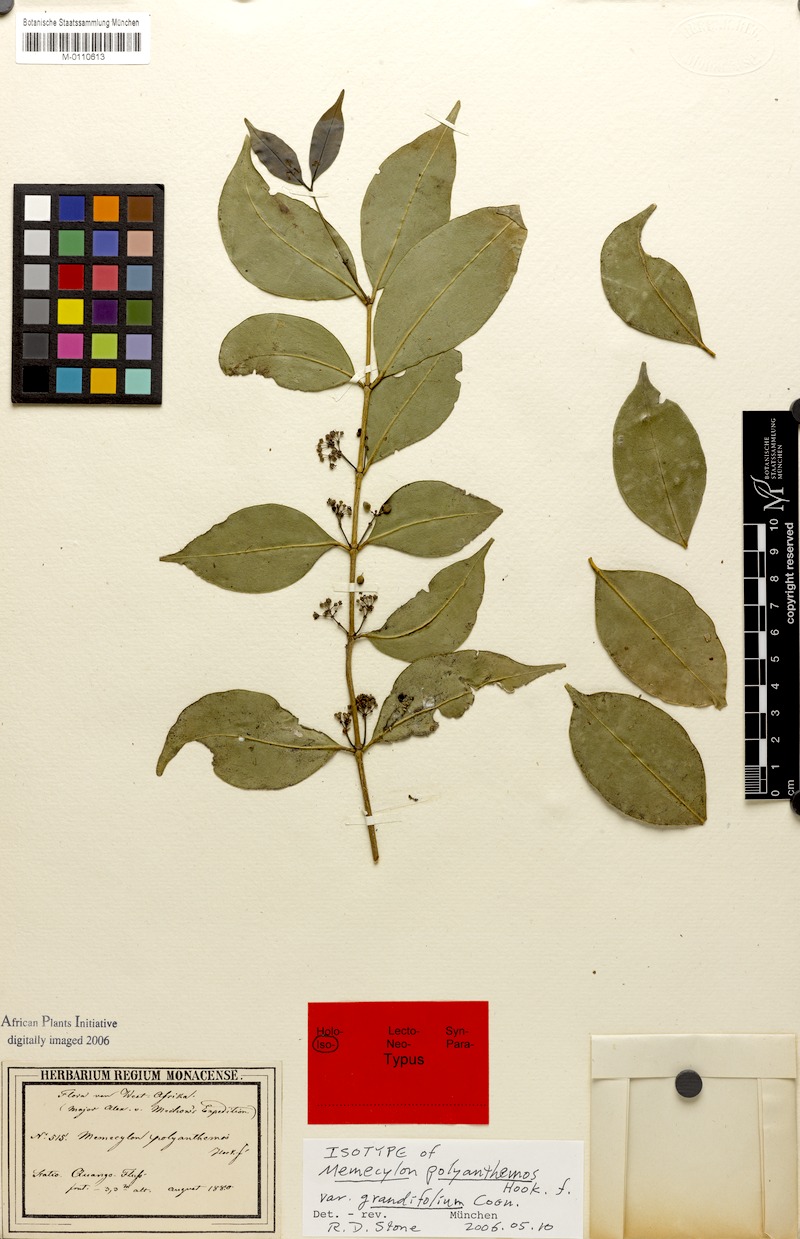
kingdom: Plantae
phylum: Tracheophyta
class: Magnoliopsida
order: Myrtales
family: Melastomataceae
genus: Memecylon
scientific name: Memecylon myrianthum
